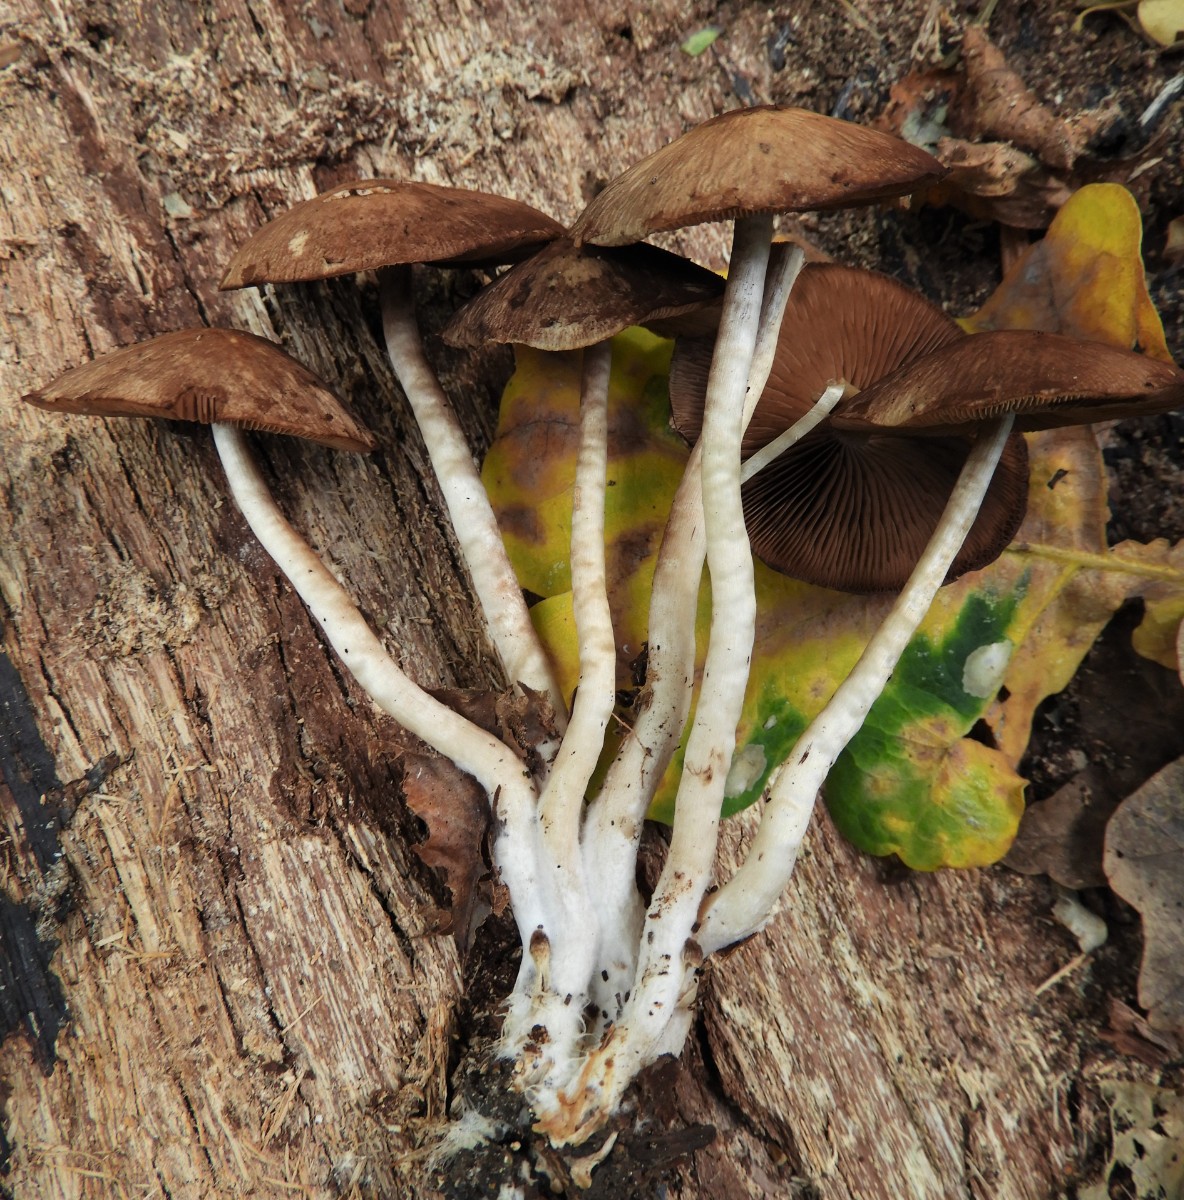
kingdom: Fungi
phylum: Basidiomycota
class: Agaricomycetes
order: Agaricales
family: Psathyrellaceae
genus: Psathyrella
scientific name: Psathyrella piluliformis
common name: lysstokket mørkhat
